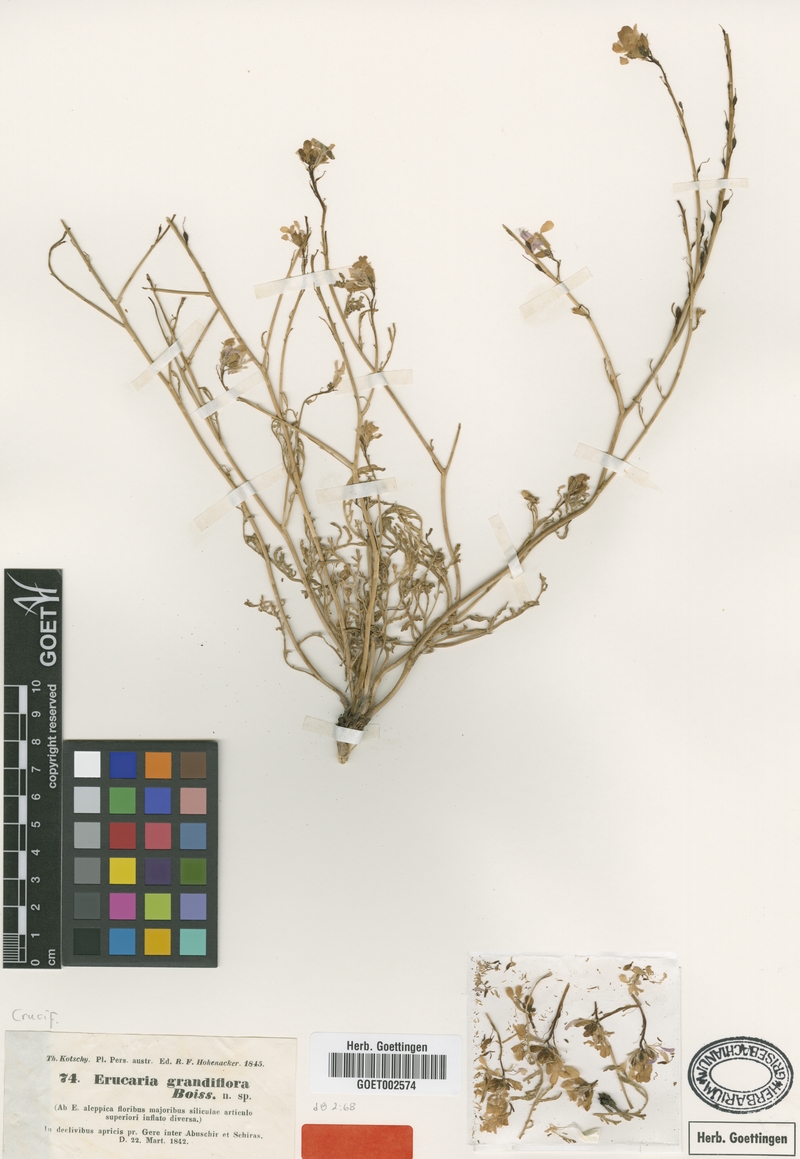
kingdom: Plantae
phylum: Tracheophyta
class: Magnoliopsida
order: Brassicales
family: Brassicaceae
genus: Erucaria
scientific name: Erucaria hispanica
